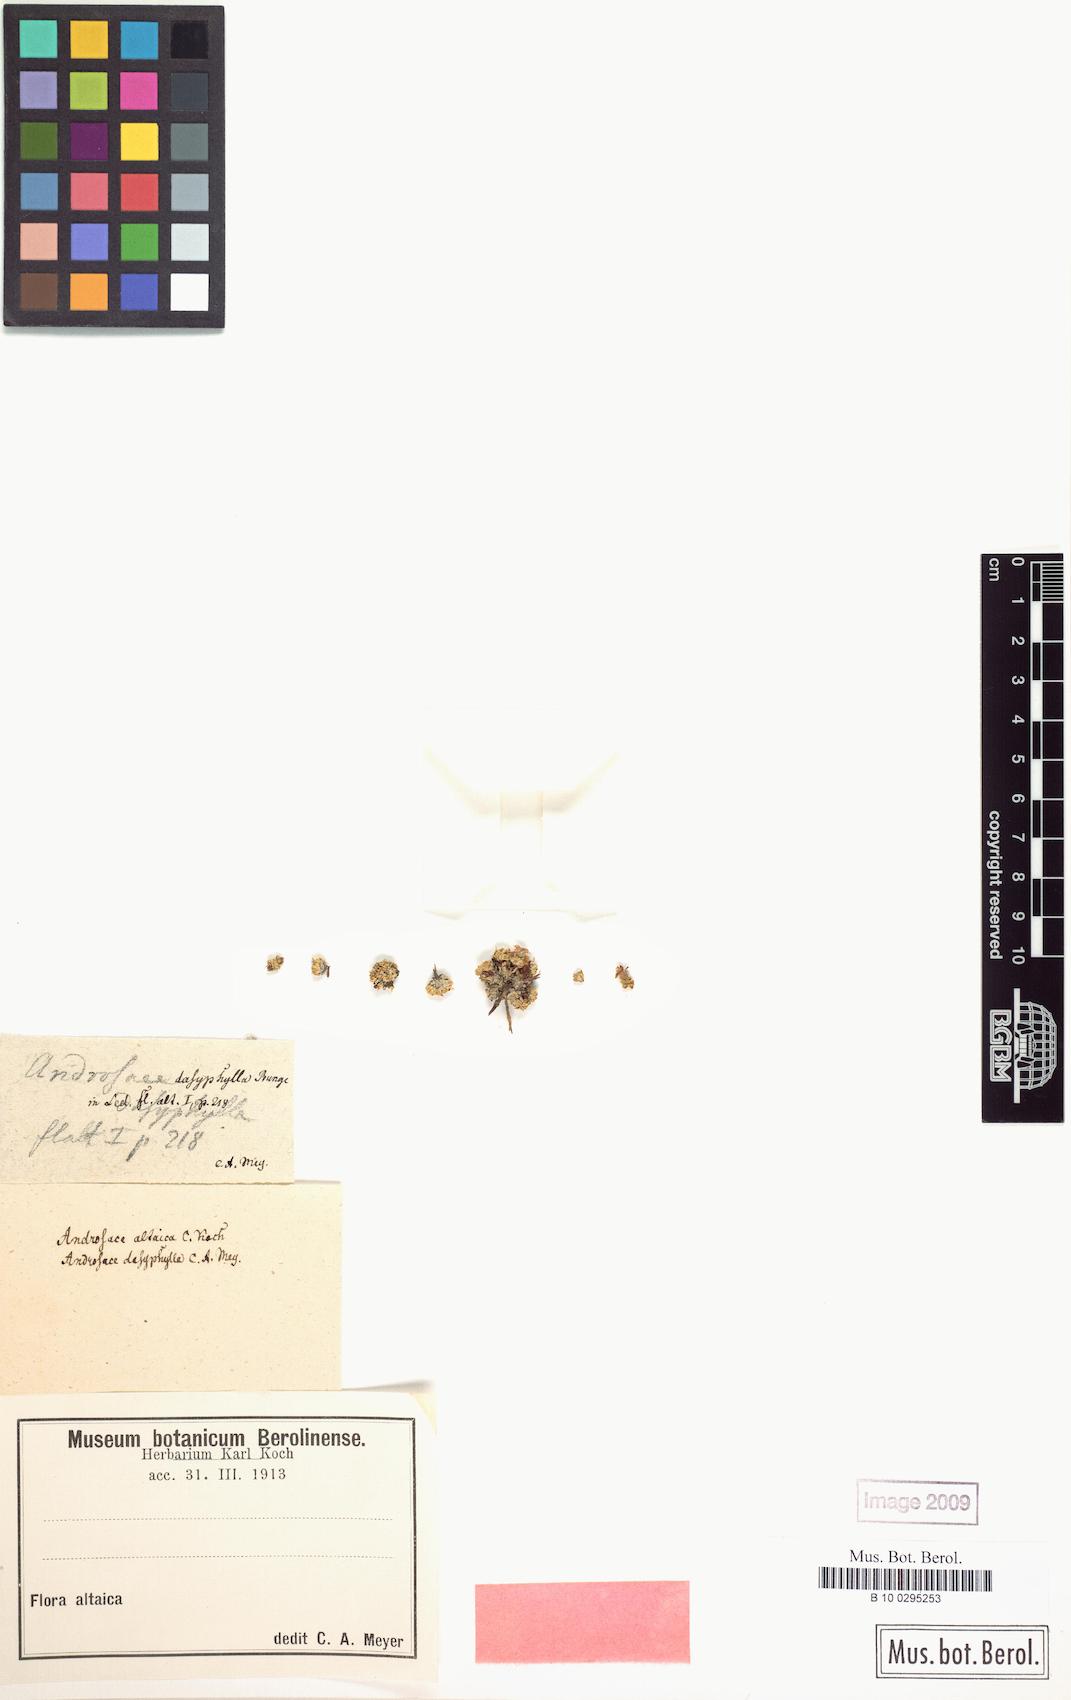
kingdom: Plantae
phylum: Tracheophyta
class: Magnoliopsida
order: Ericales
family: Primulaceae
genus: Androsace
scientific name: Androsace dasyphylla
